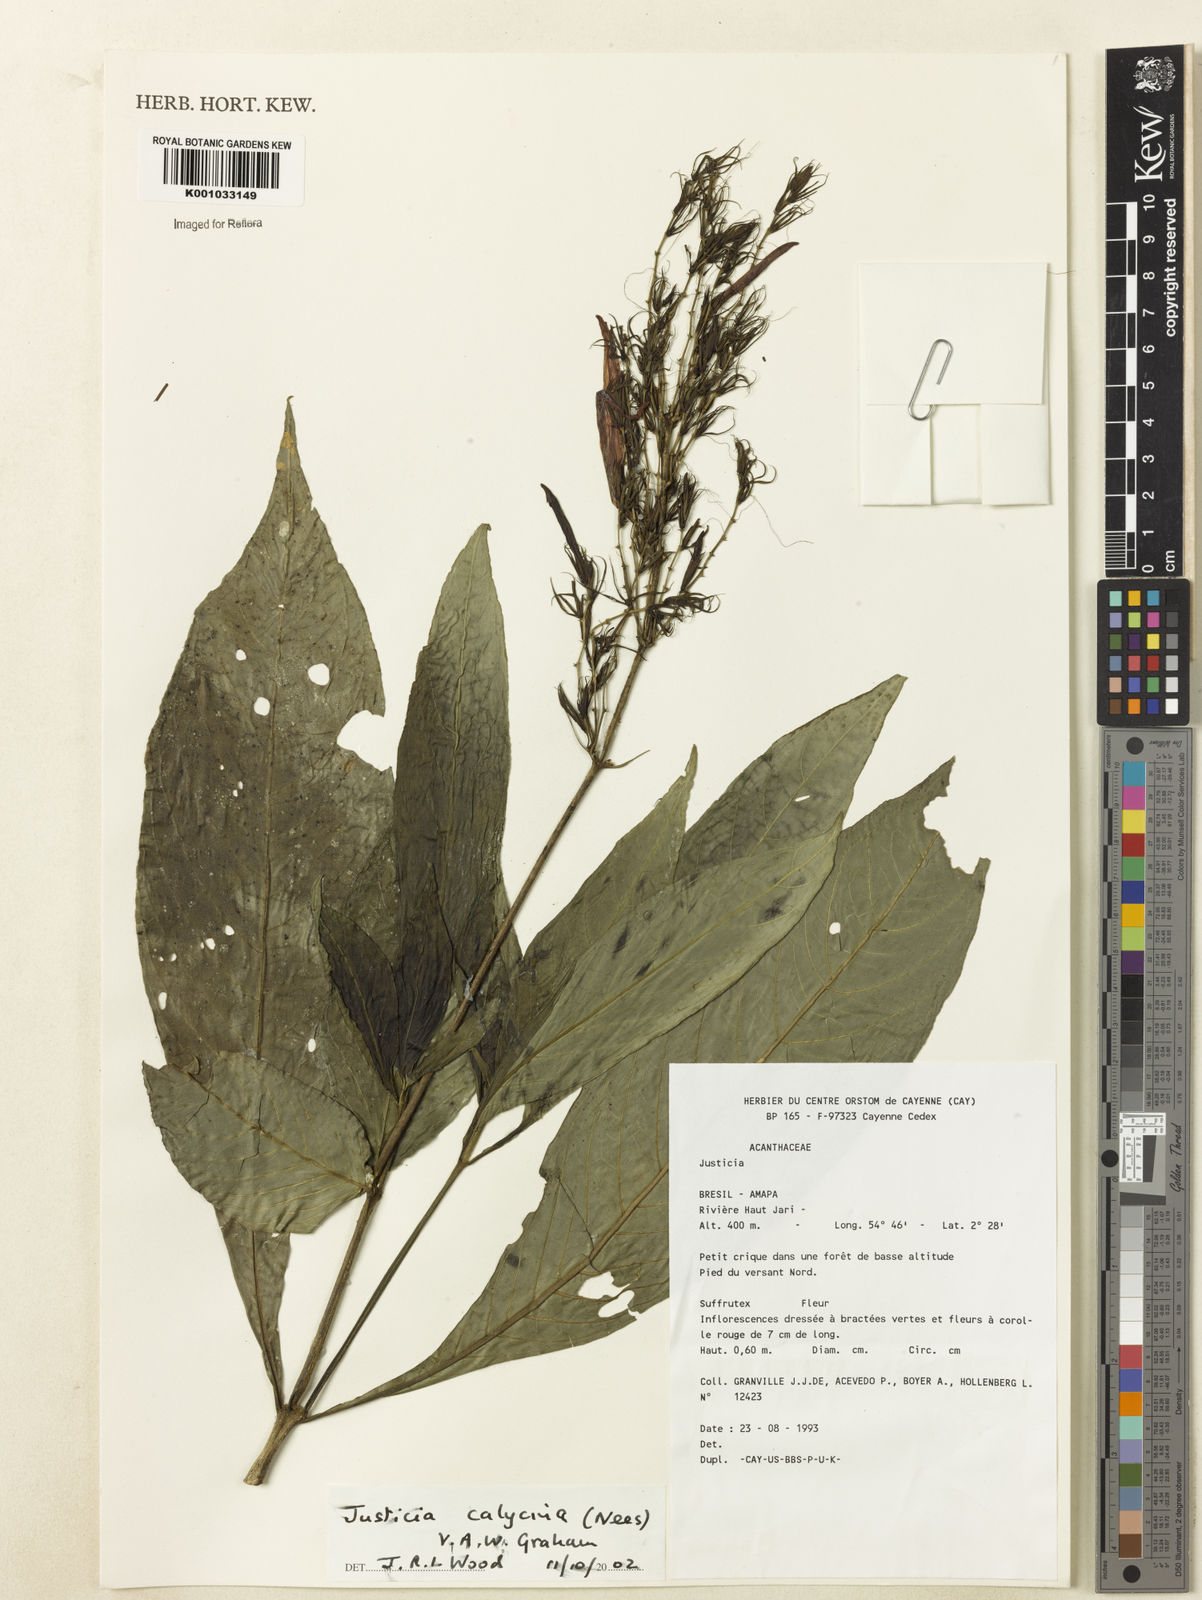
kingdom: Plantae
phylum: Tracheophyta
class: Magnoliopsida
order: Lamiales
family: Acanthaceae
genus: Dianthera
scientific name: Dianthera calycina
